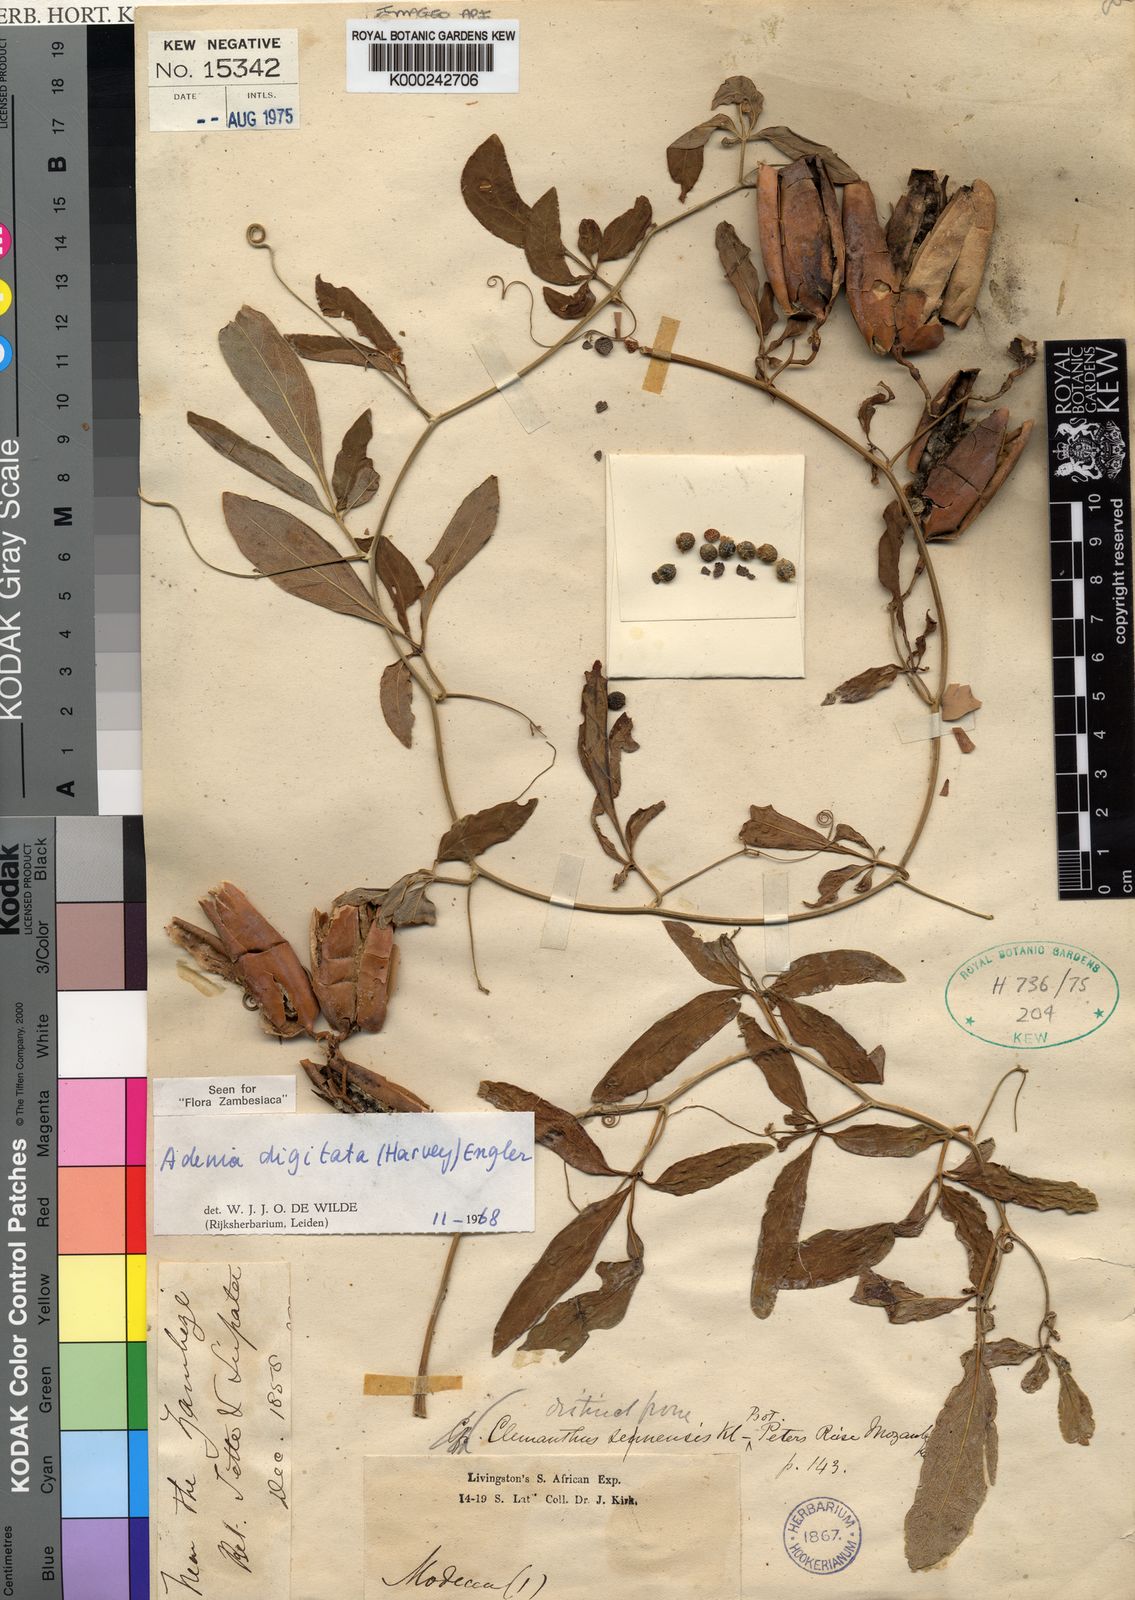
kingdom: Plantae
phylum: Tracheophyta
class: Magnoliopsida
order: Malpighiales
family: Passifloraceae
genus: Adenia
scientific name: Adenia digitata
